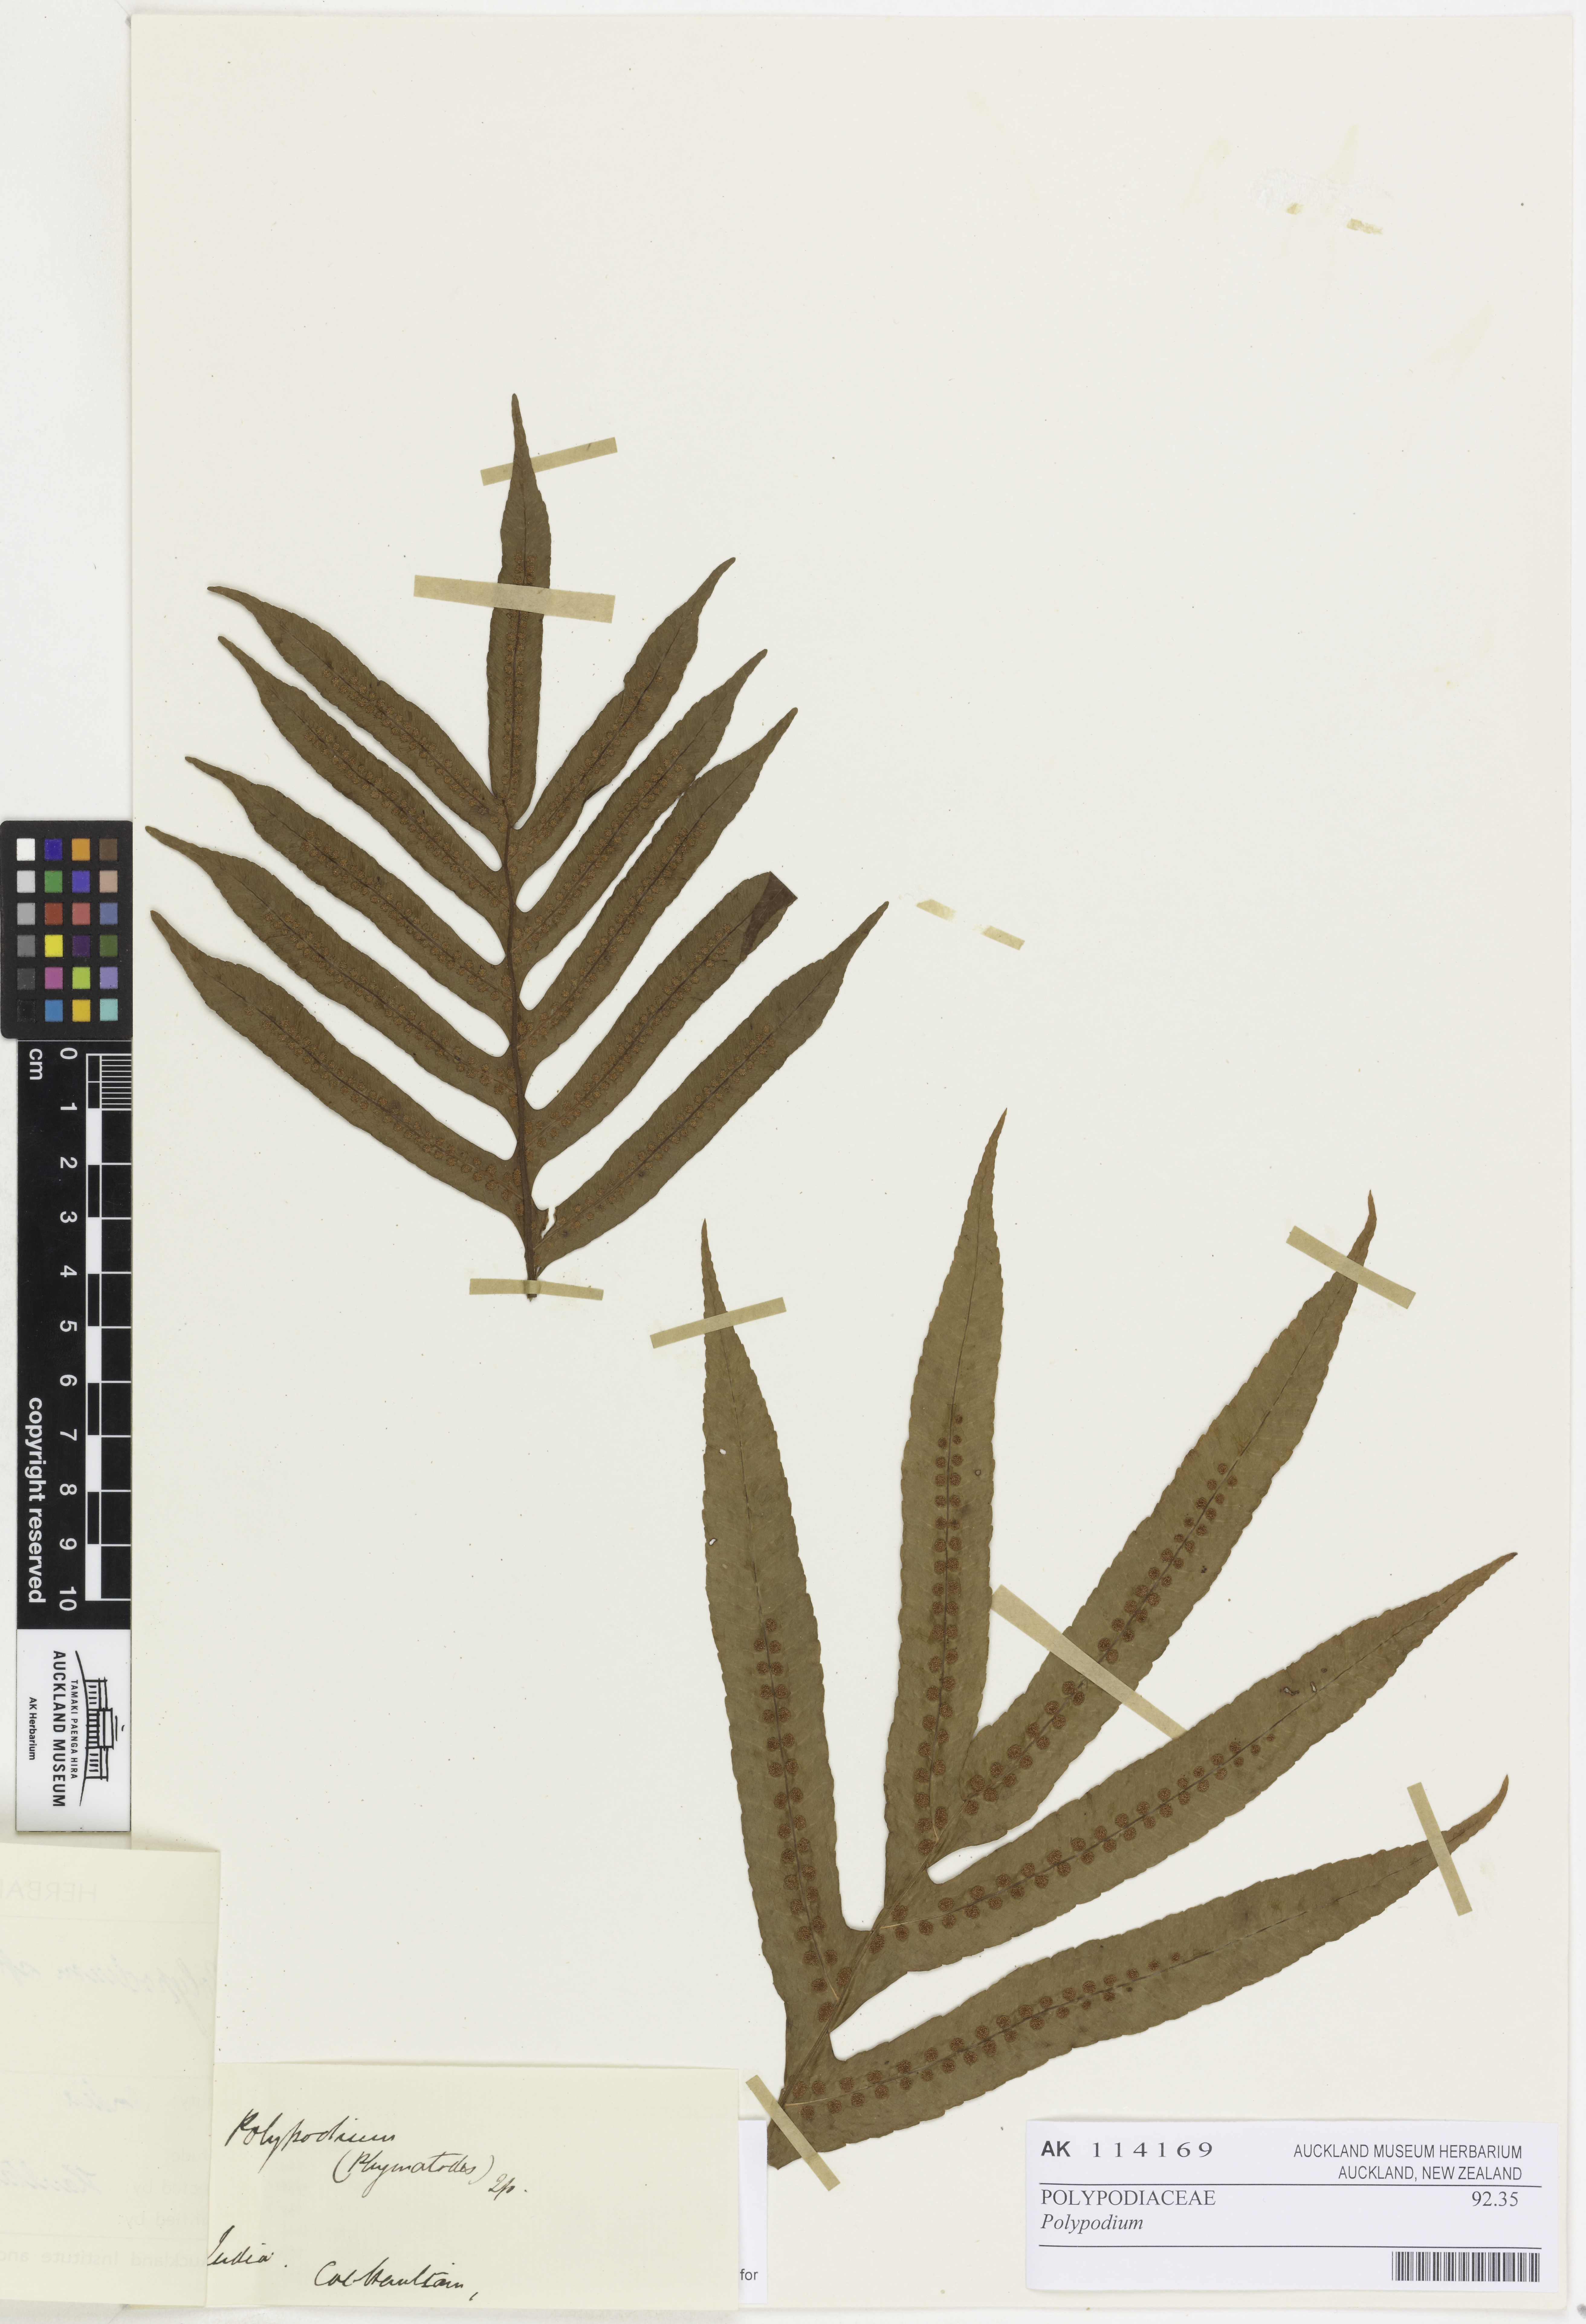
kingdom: Plantae
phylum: Tracheophyta
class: Polypodiopsida
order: Polypodiales
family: Polypodiaceae
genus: Polypodium
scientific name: Polypodium
